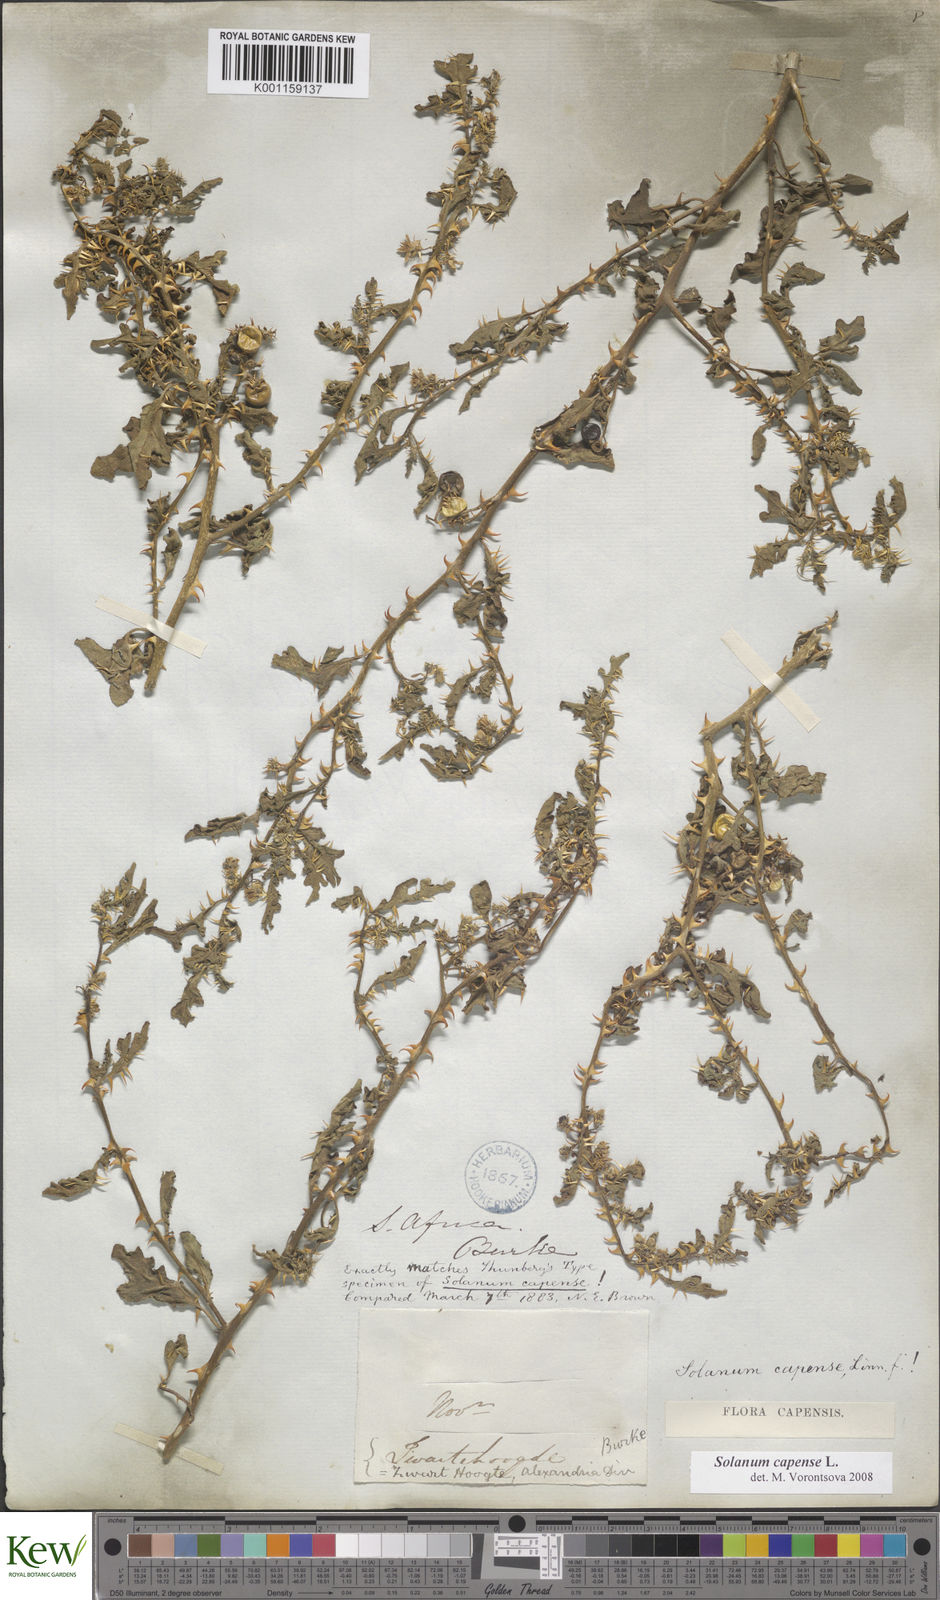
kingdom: Plantae
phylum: Tracheophyta
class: Magnoliopsida
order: Solanales
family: Solanaceae
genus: Solanum
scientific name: Solanum capense
